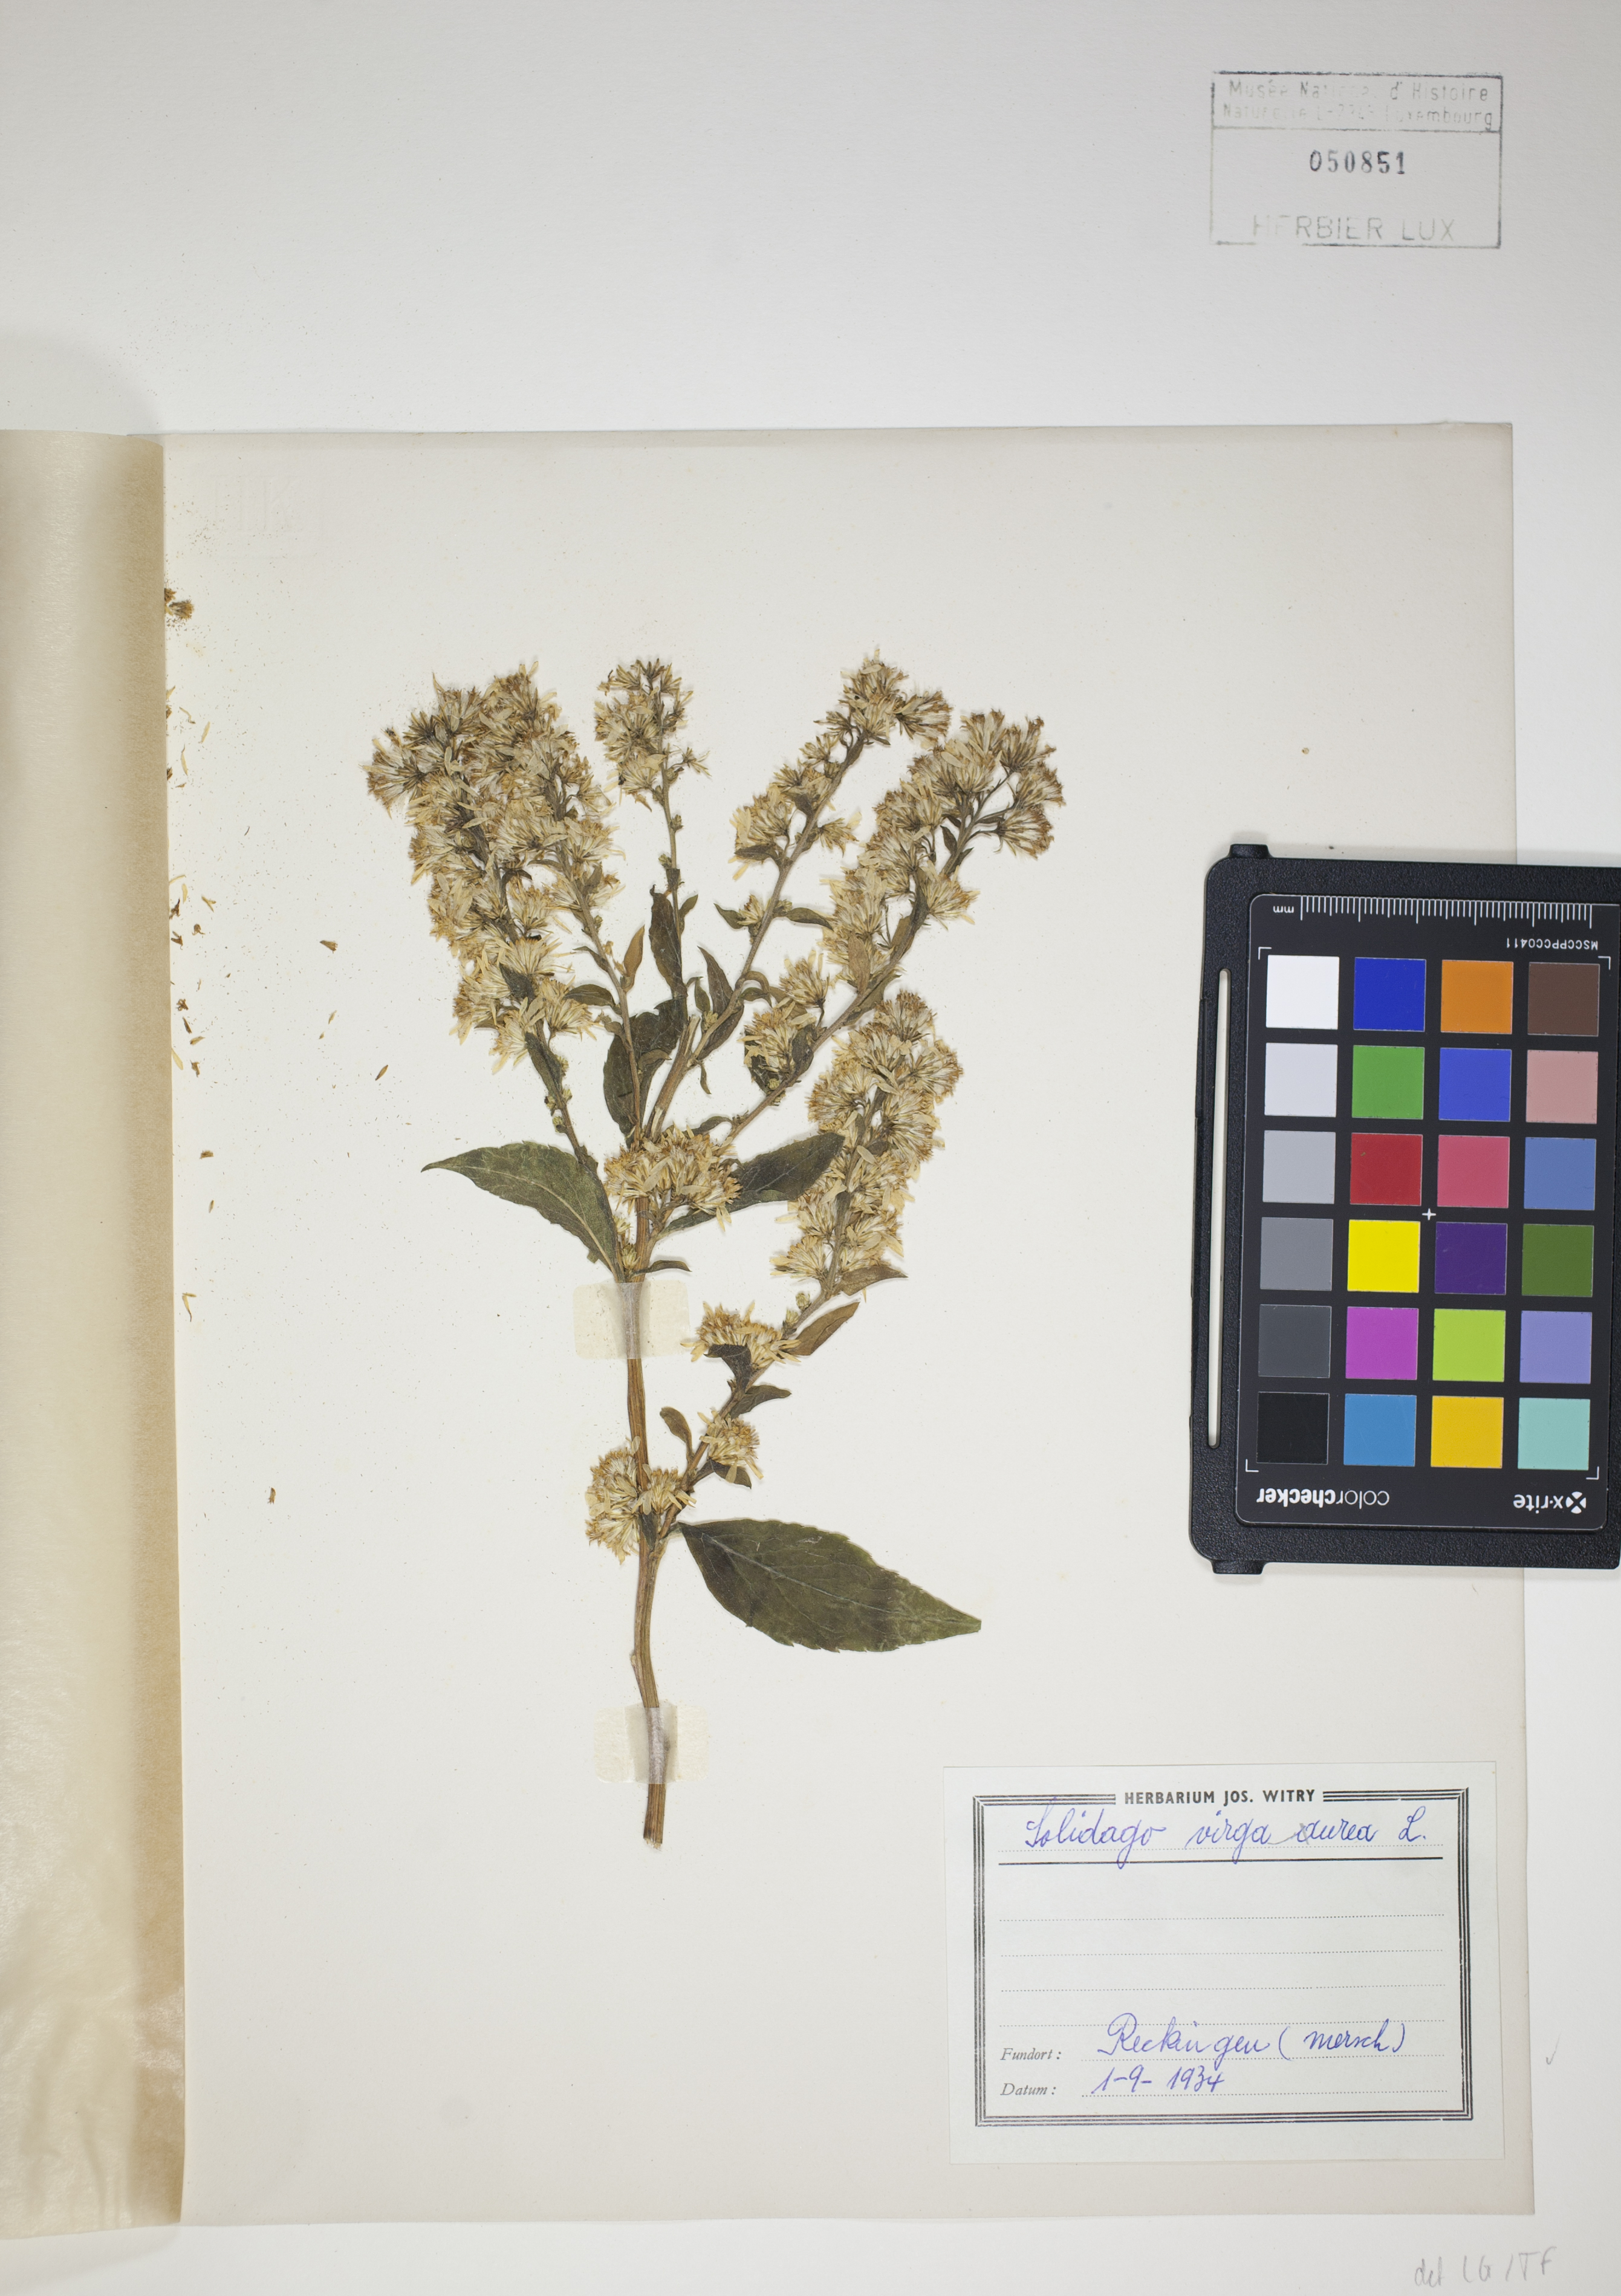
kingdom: Plantae
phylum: Tracheophyta
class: Magnoliopsida
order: Asterales
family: Asteraceae
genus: Solidago
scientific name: Solidago virgaurea
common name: Goldenrod
